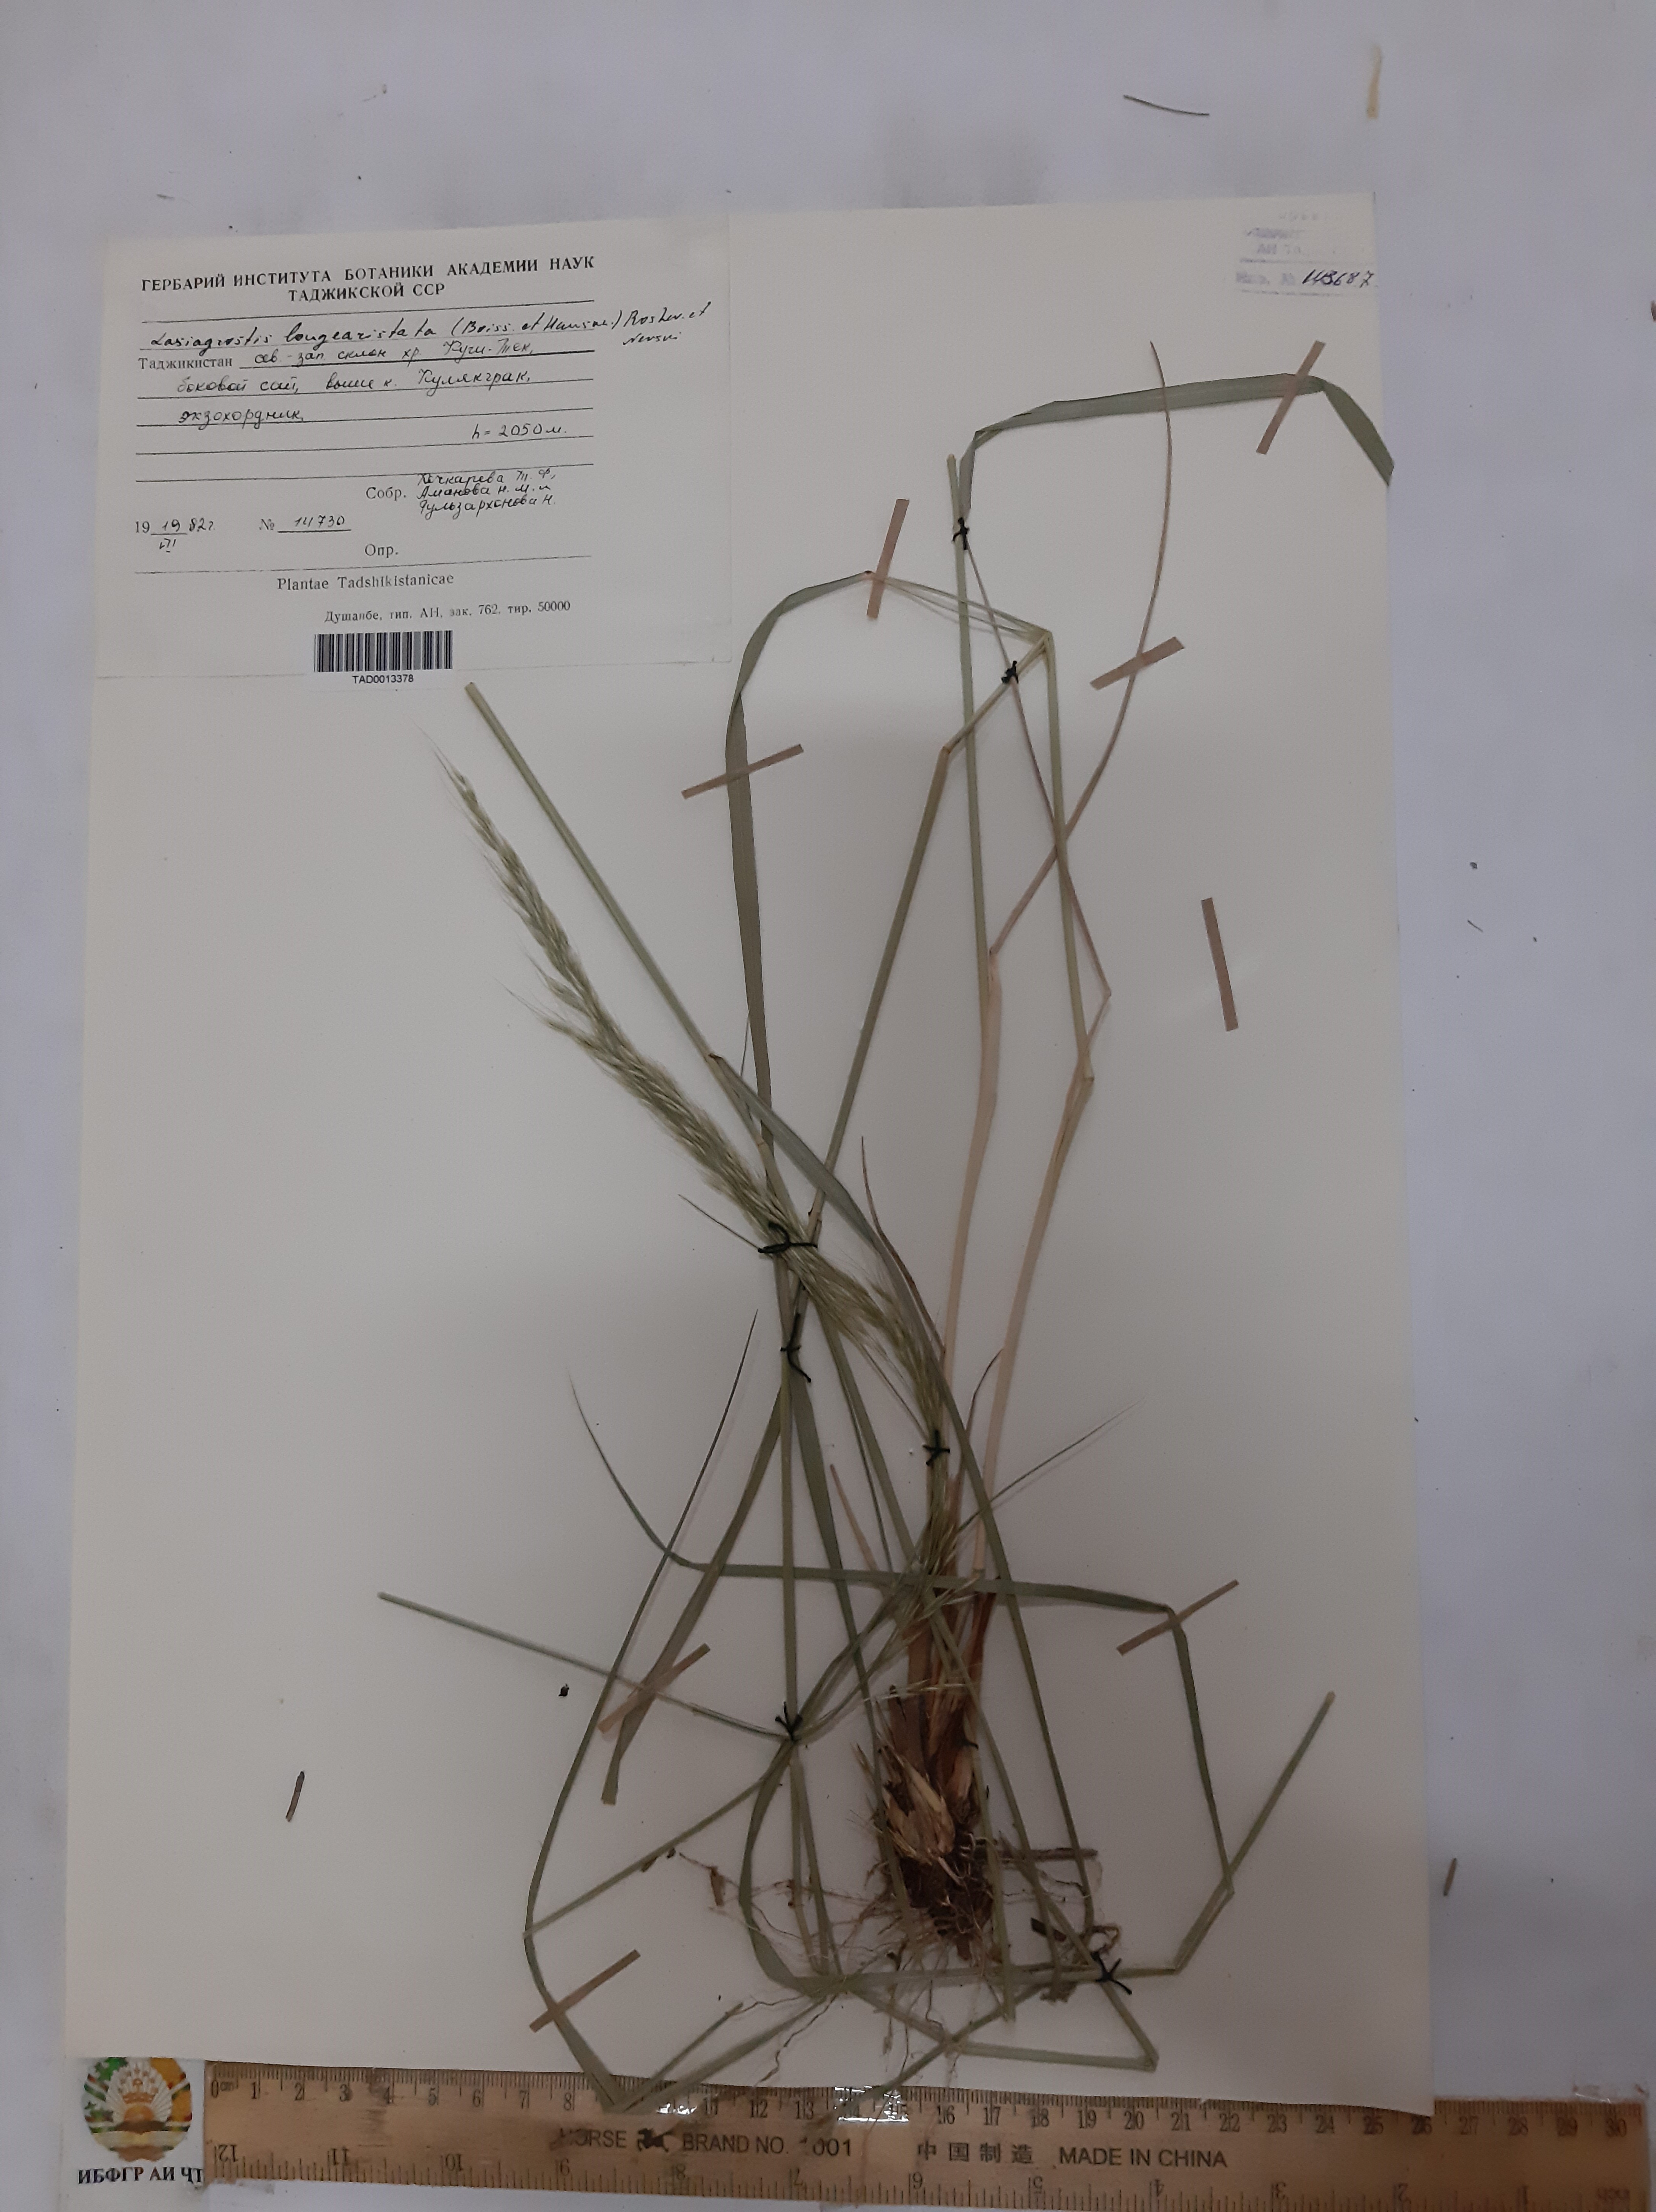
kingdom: Plantae
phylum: Tracheophyta
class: Liliopsida
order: Poales
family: Poaceae
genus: Achnatherum
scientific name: Achnatherum turcomanicum
